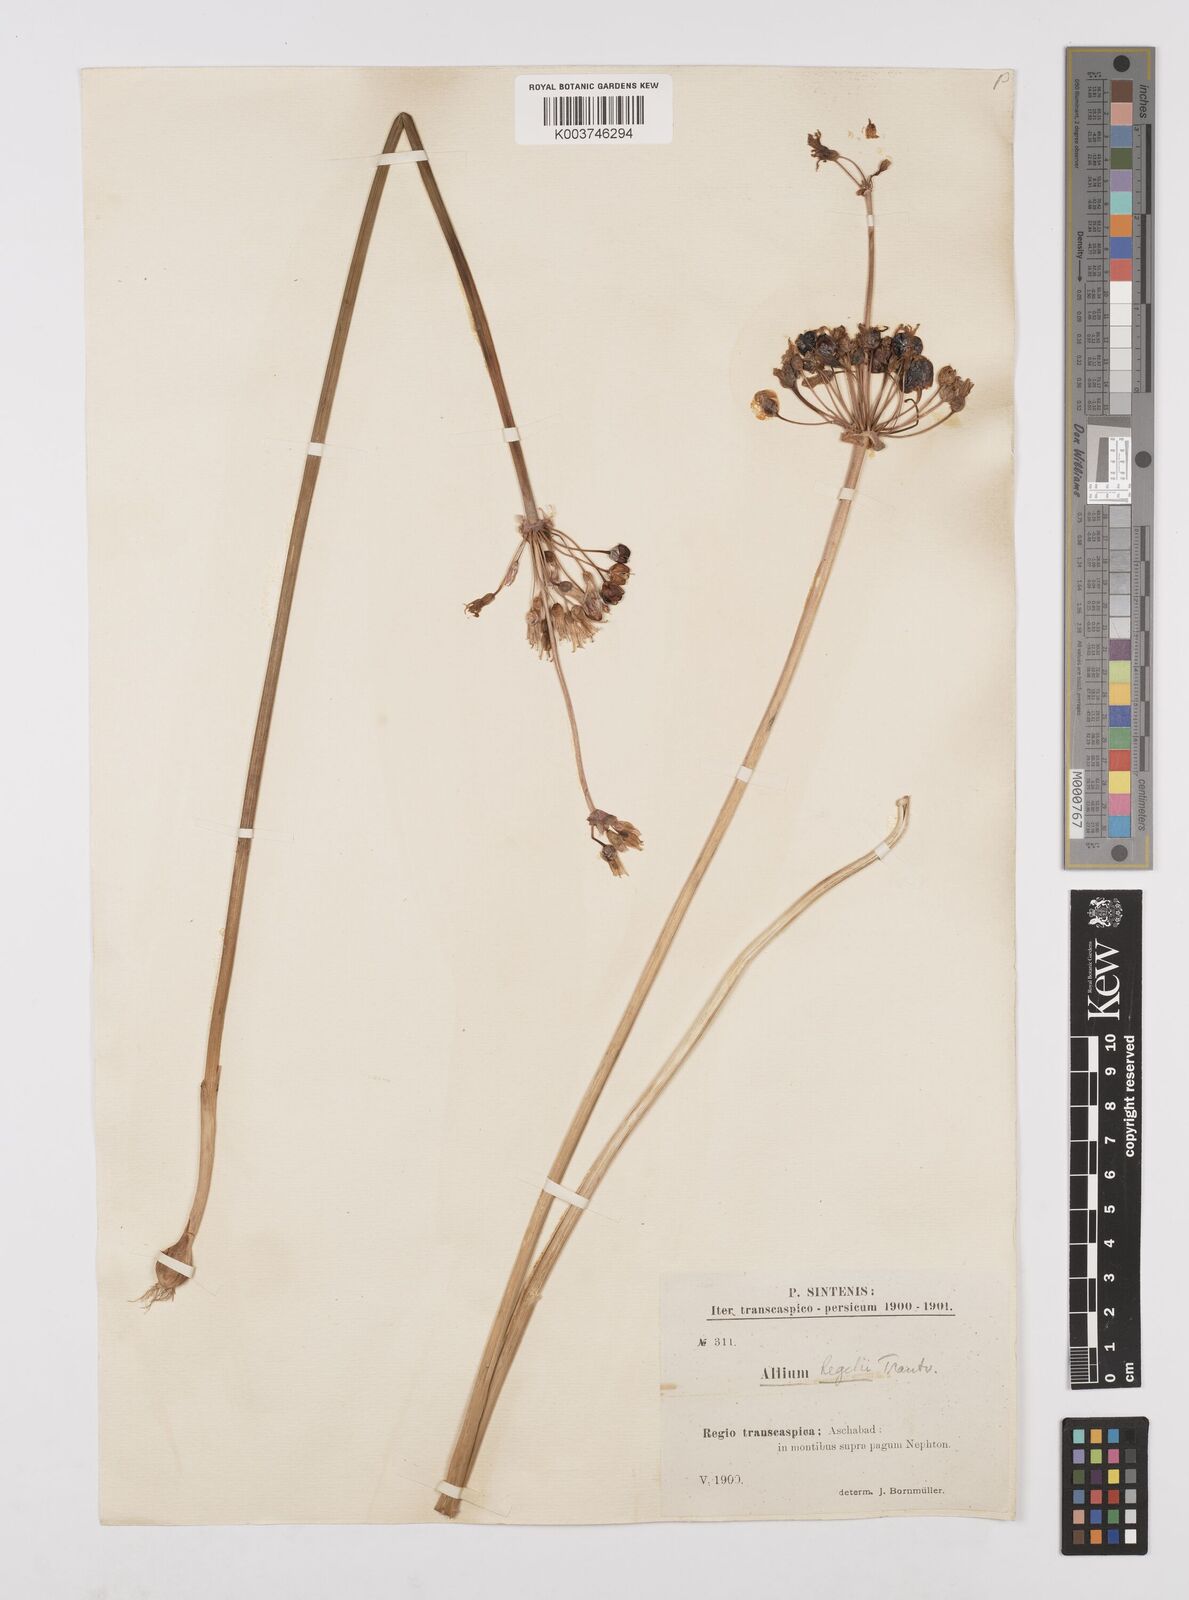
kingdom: Plantae
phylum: Tracheophyta
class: Liliopsida
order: Asparagales
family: Amaryllidaceae
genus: Allium
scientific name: Allium regelii
